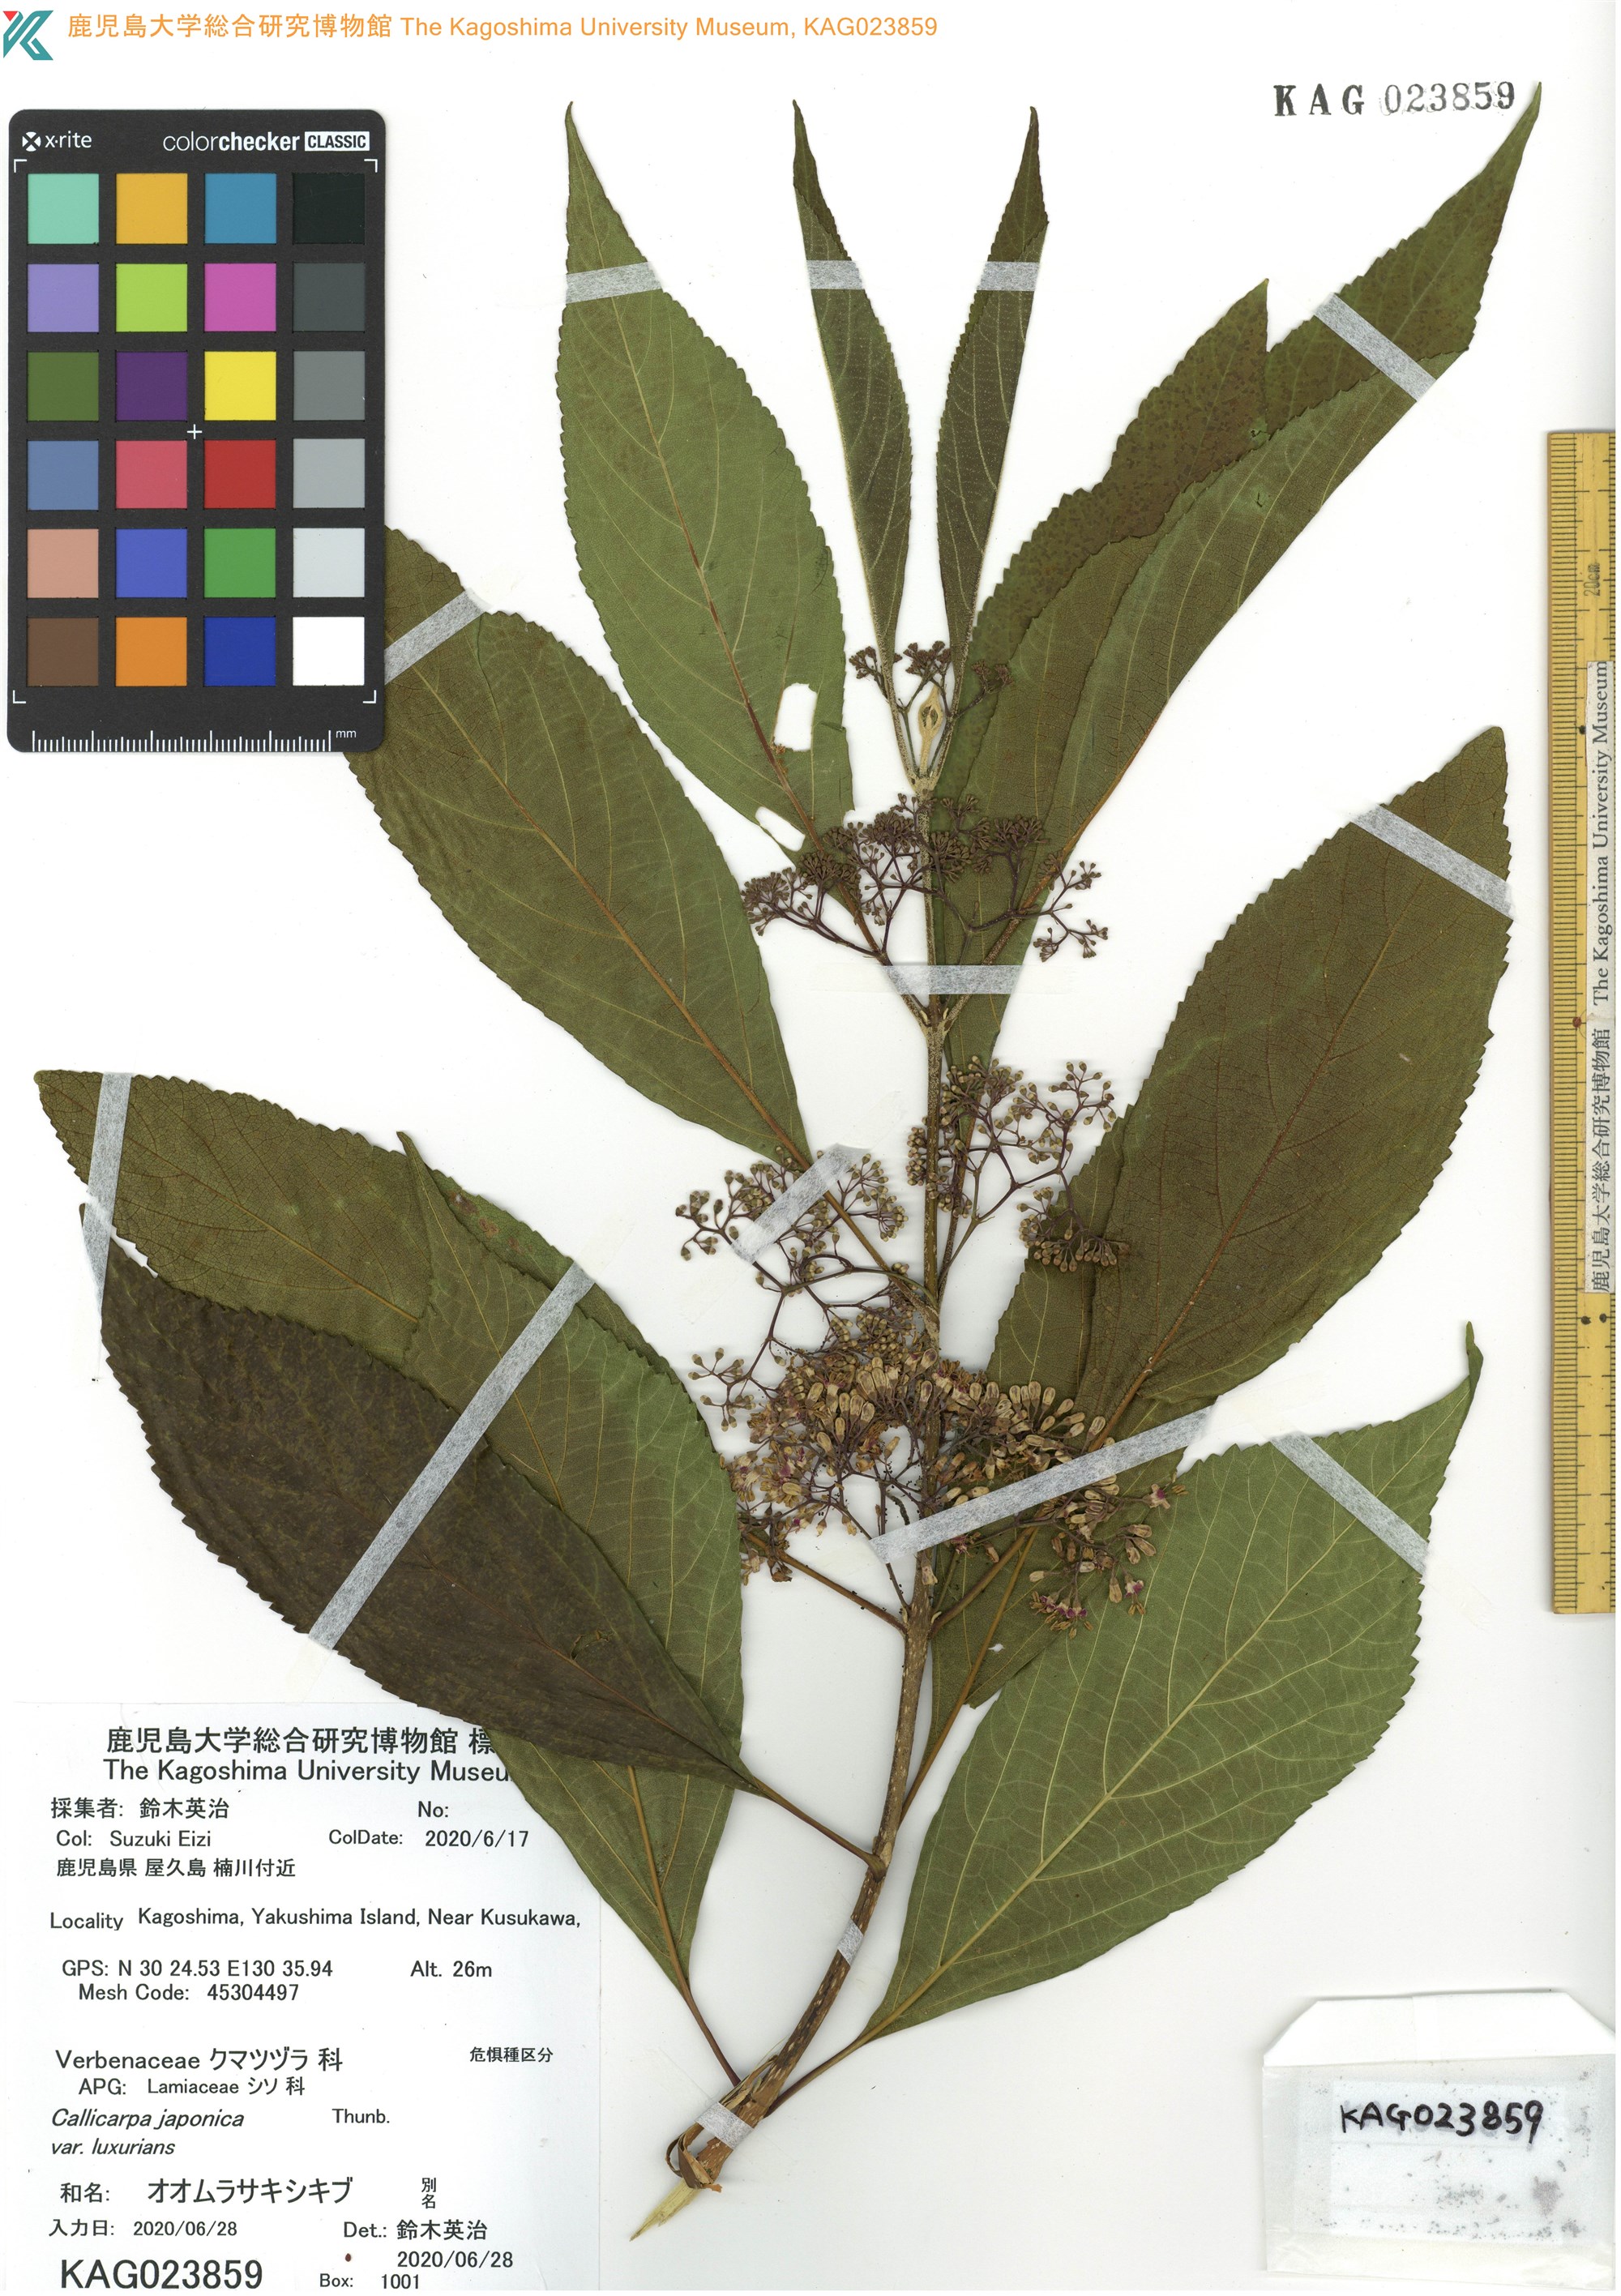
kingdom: Plantae
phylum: Tracheophyta
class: Magnoliopsida
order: Lamiales
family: Lamiaceae
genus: Callicarpa
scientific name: Callicarpa japonica
